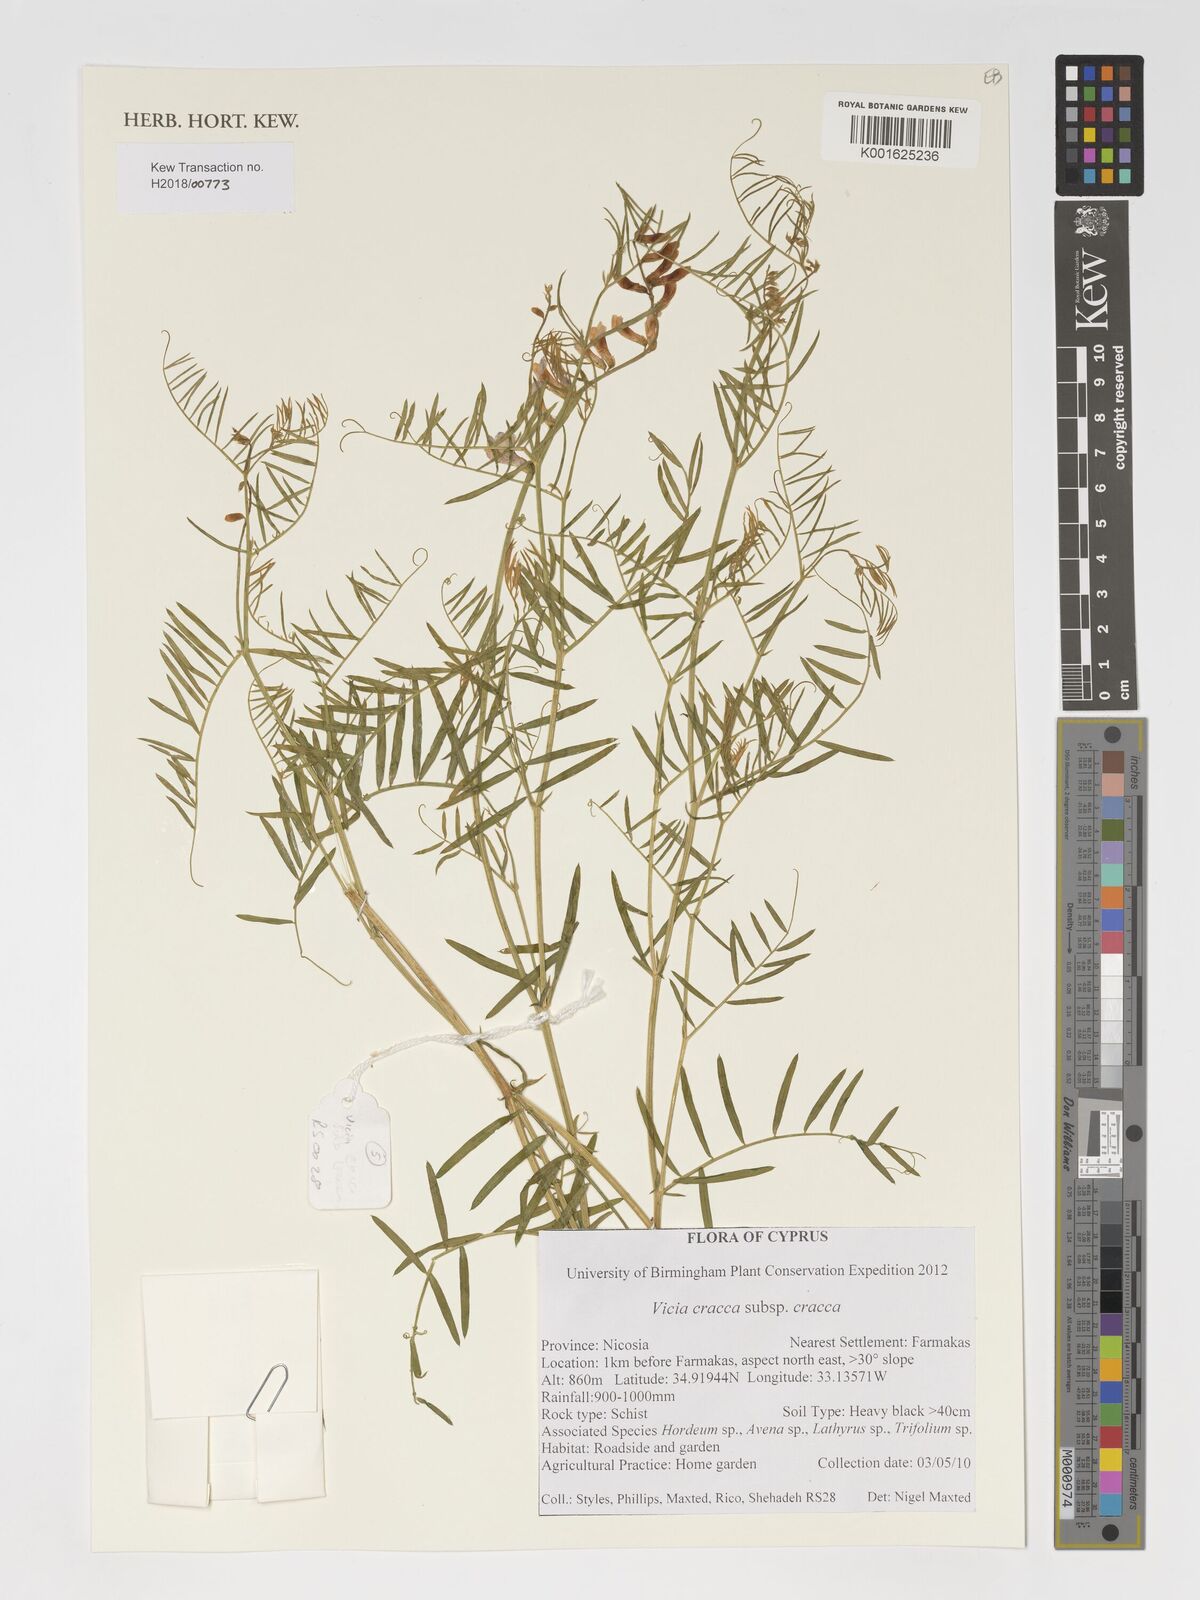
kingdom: Plantae
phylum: Tracheophyta
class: Magnoliopsida
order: Fabales
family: Fabaceae
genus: Vicia
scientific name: Vicia cracca
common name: Bird vetch
